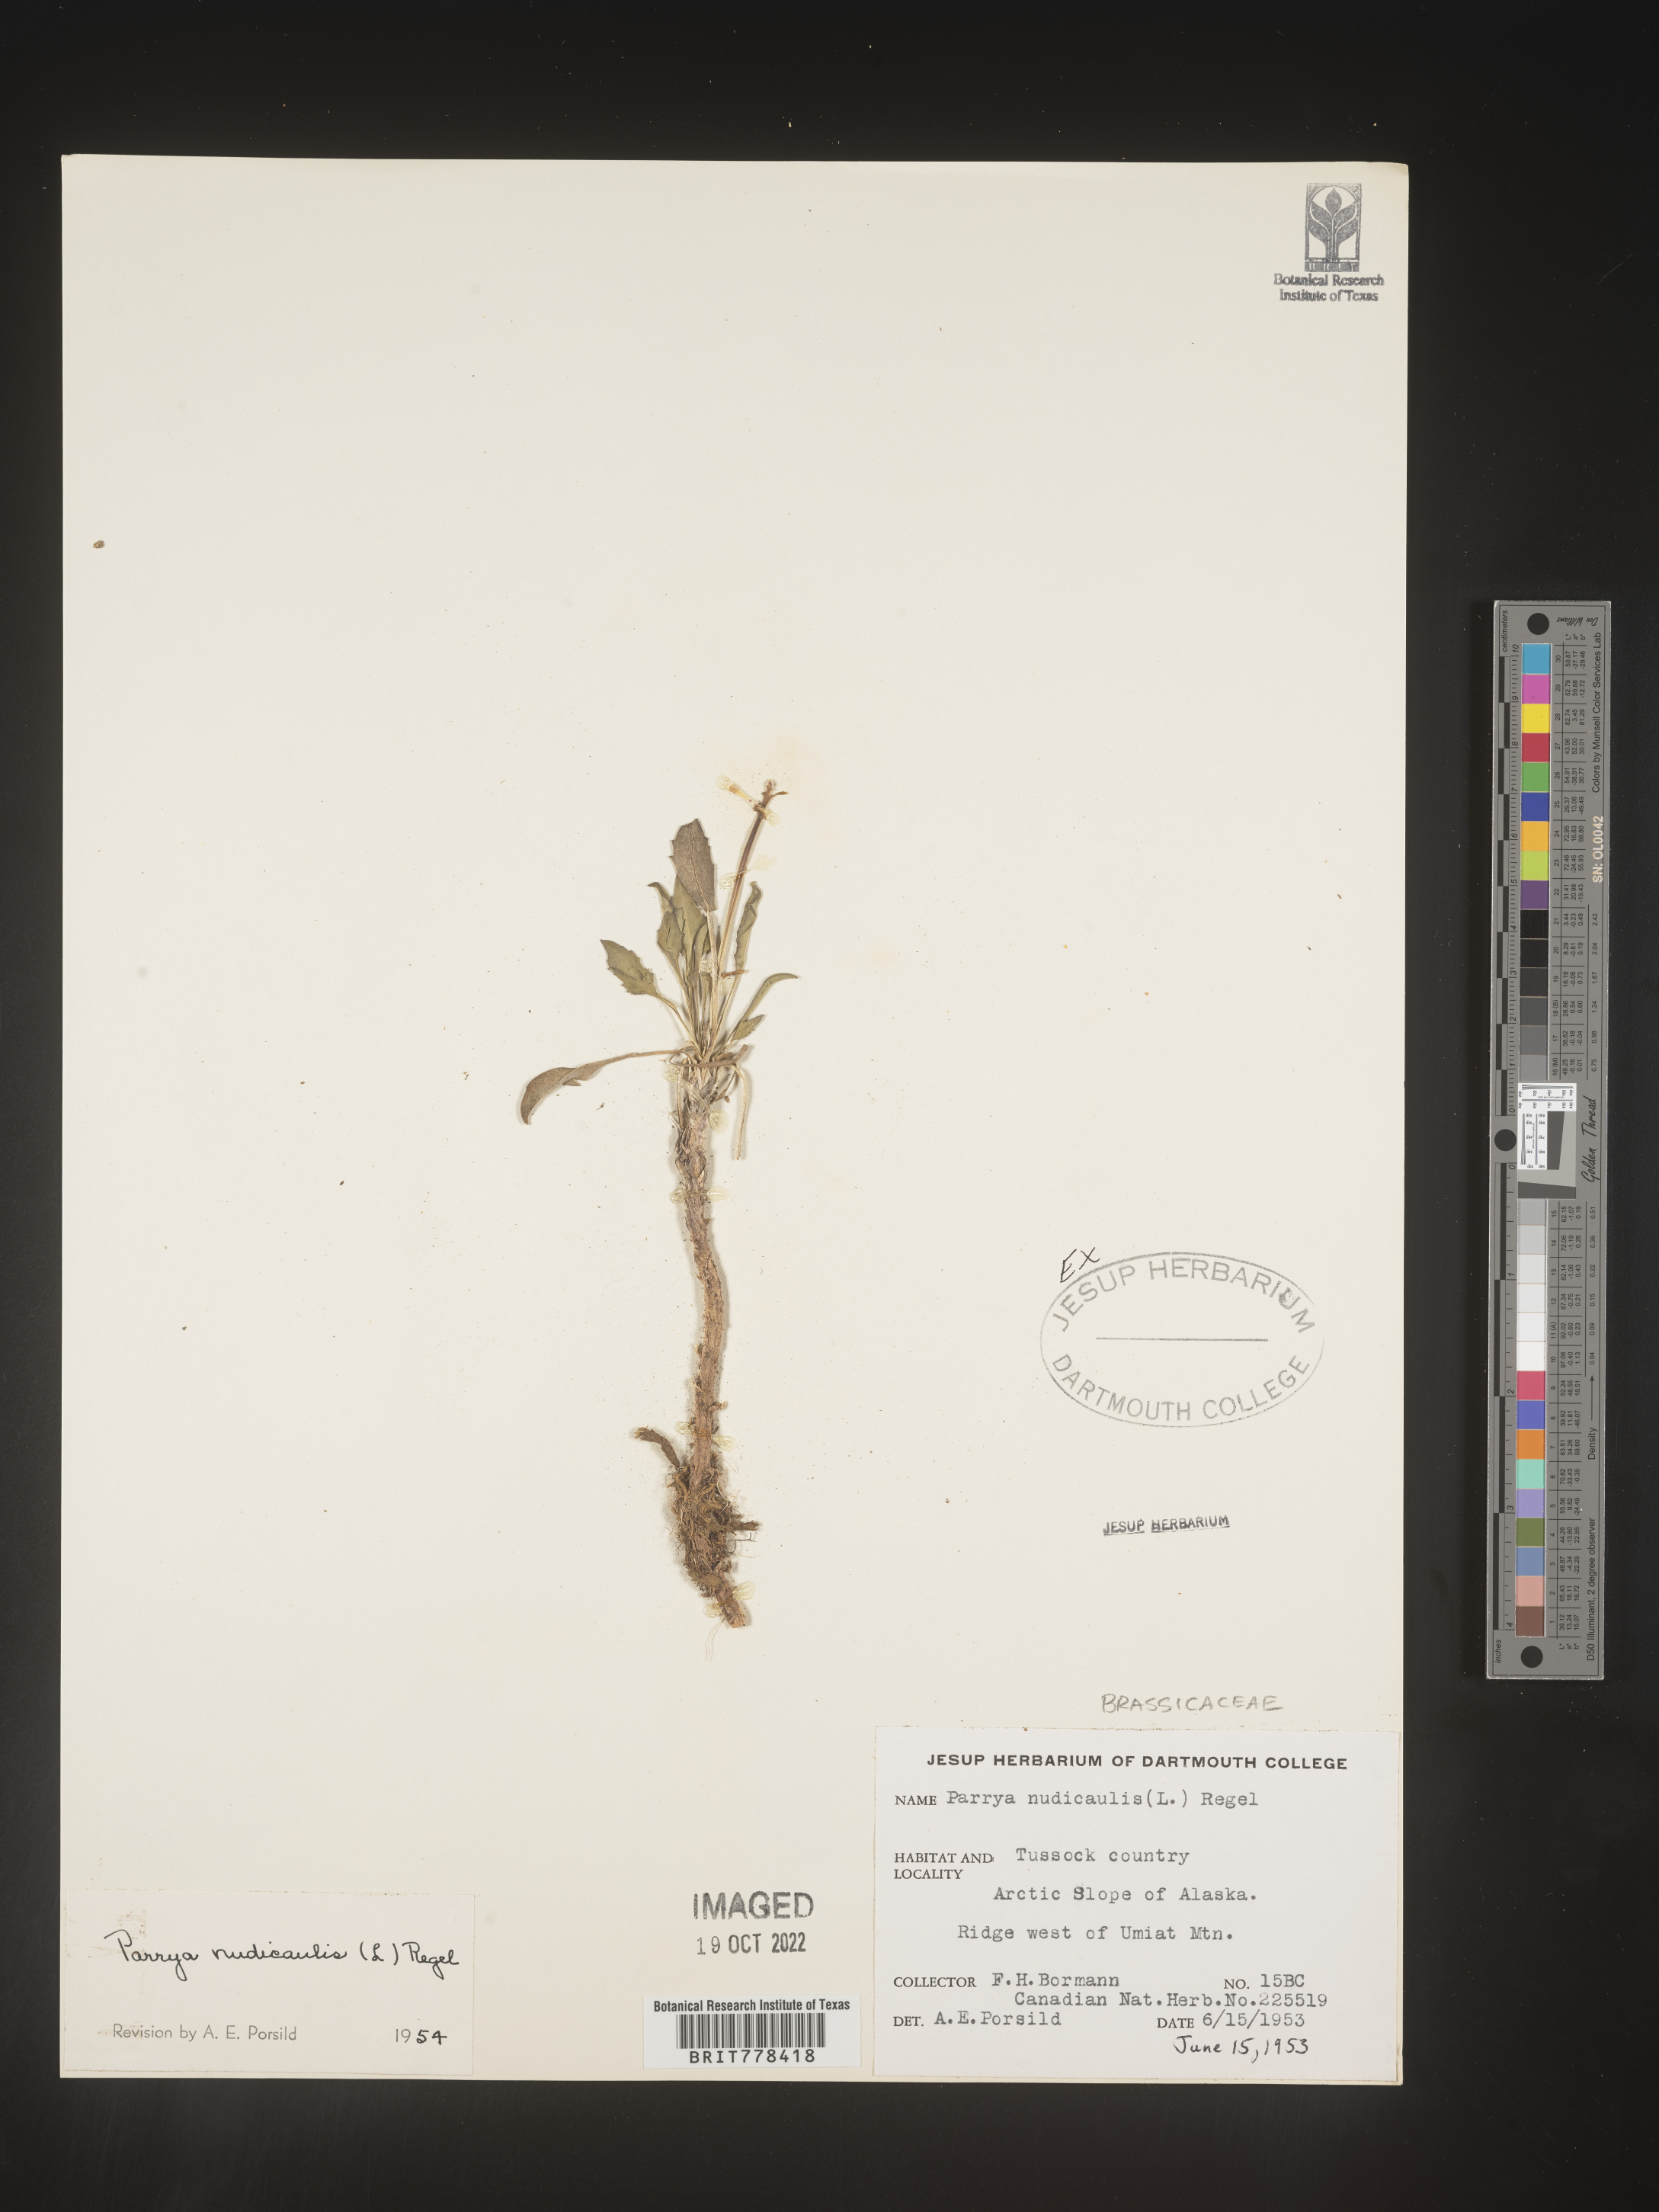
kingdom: Plantae
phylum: Tracheophyta
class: Magnoliopsida
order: Brassicales
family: Brassicaceae
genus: Parrya
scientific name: Parrya
